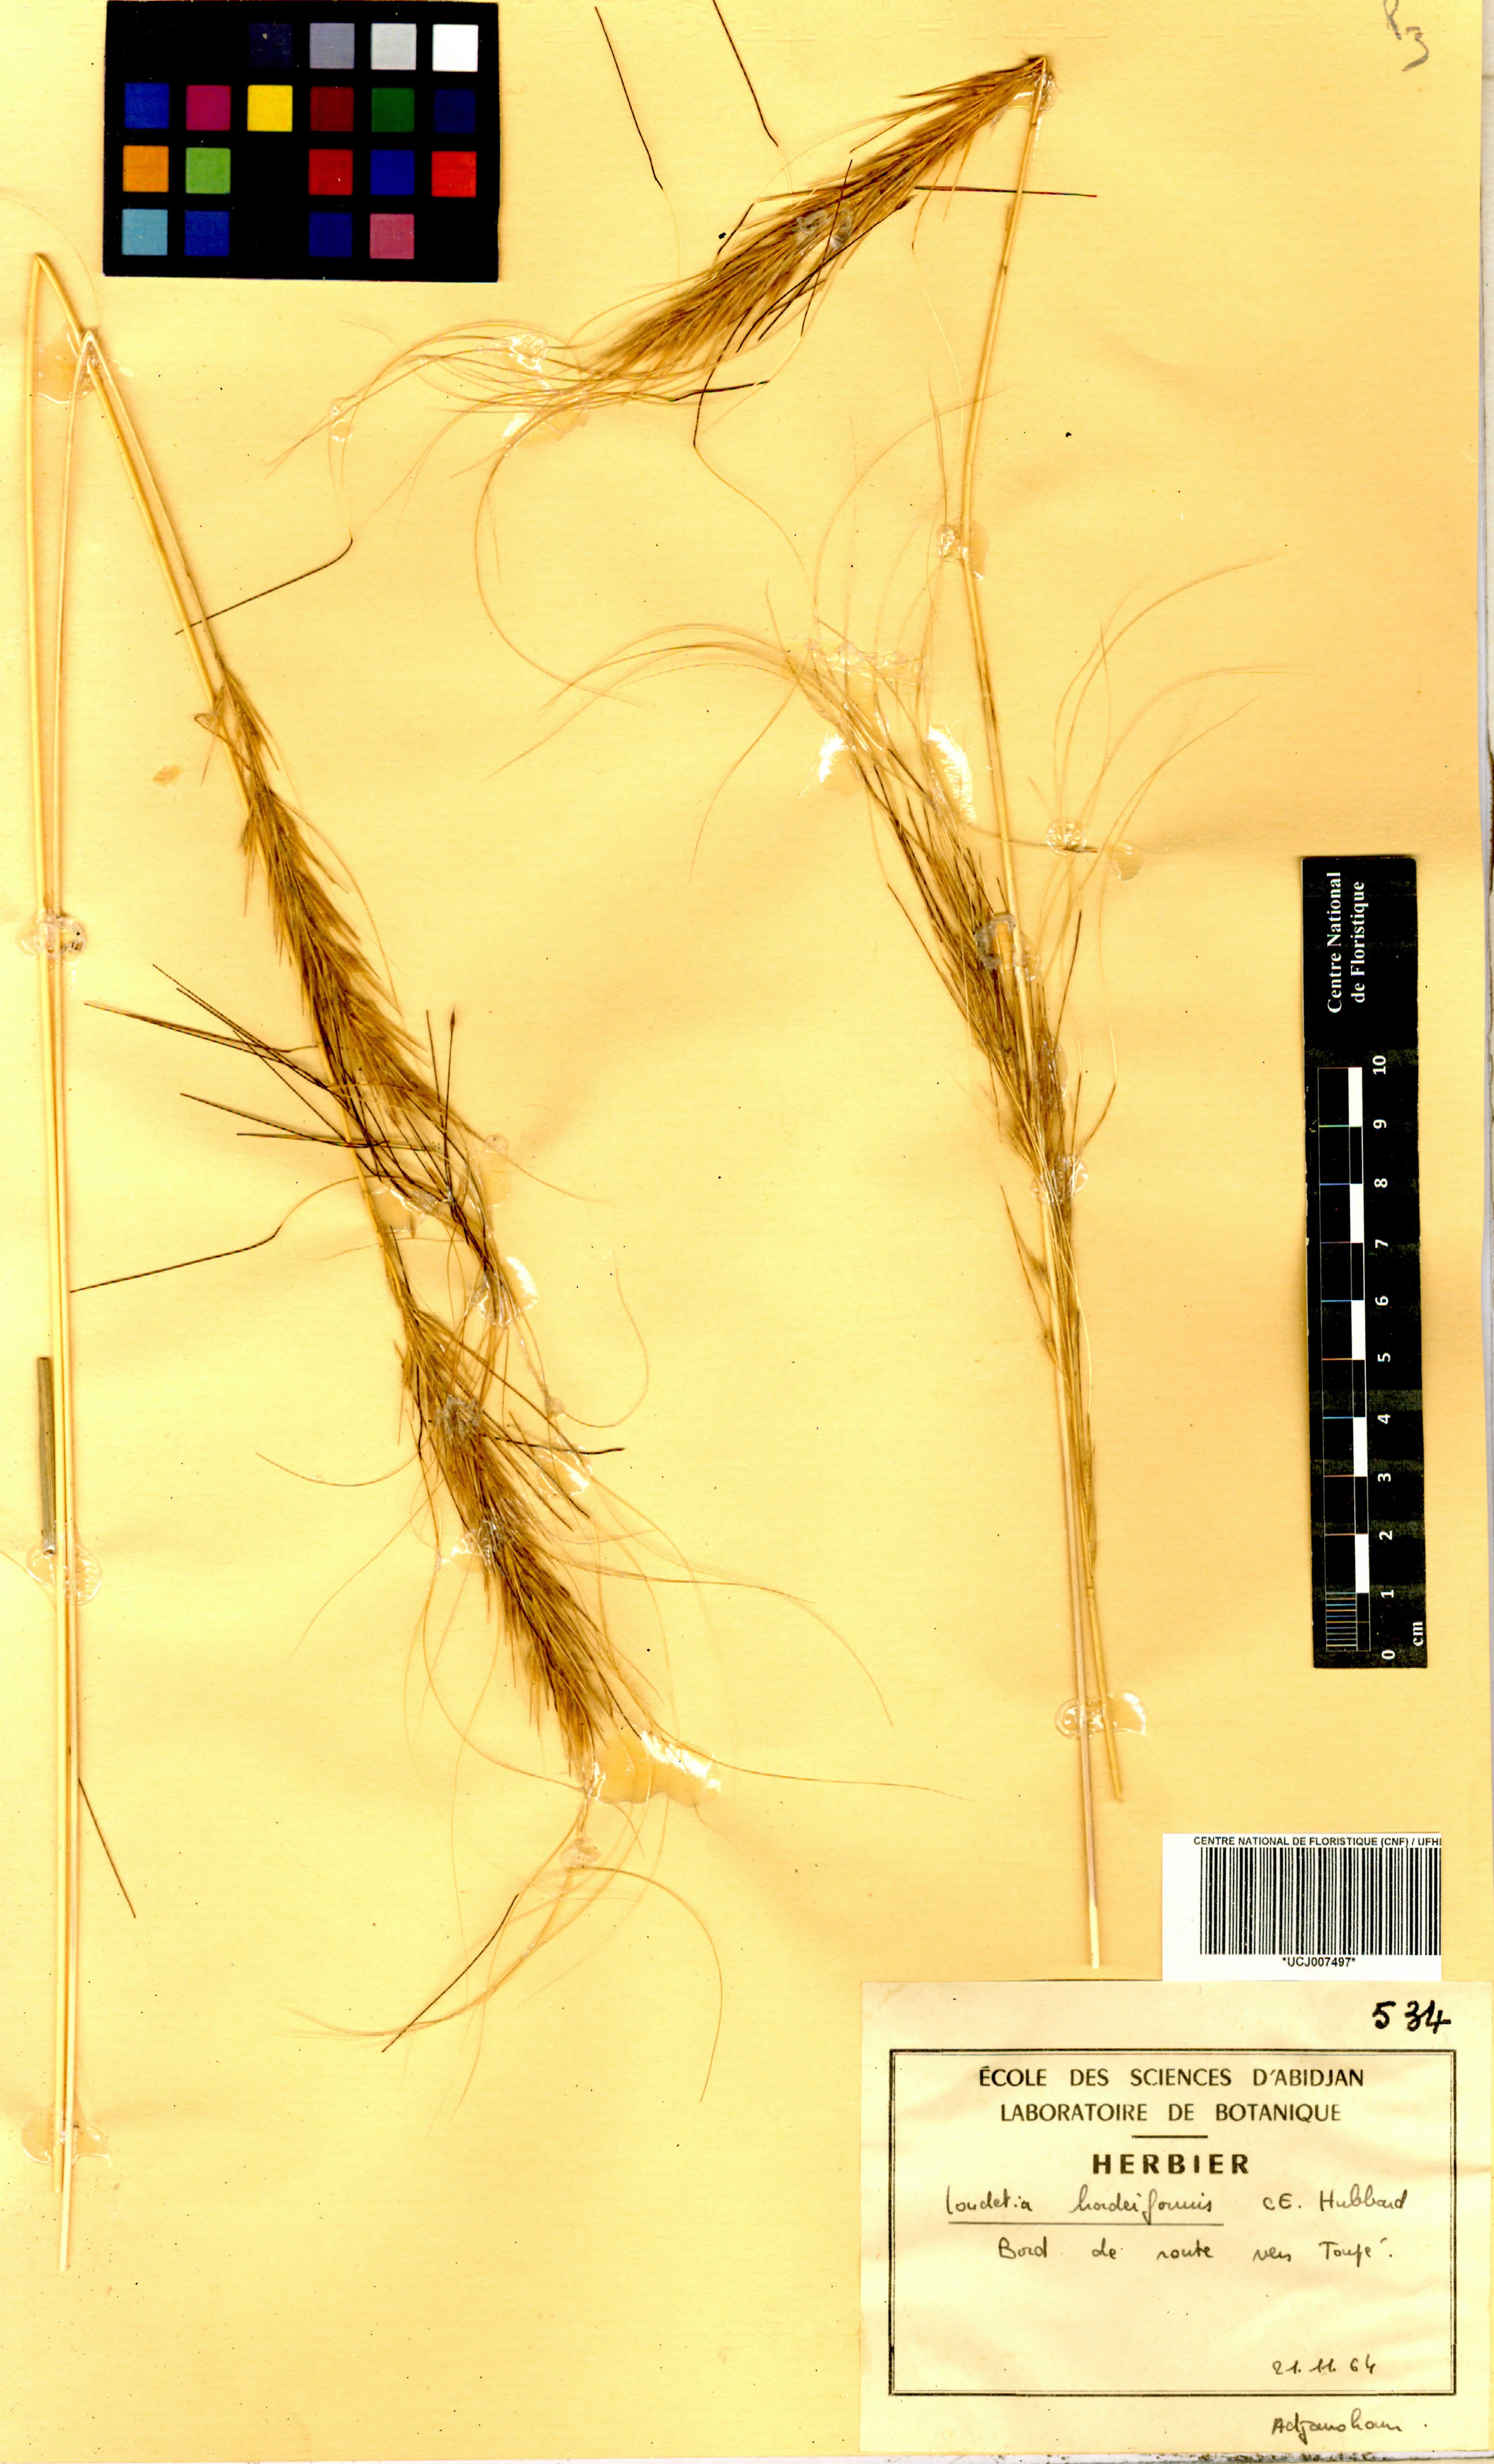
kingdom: Plantae
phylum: Tracheophyta
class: Liliopsida
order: Poales
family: Poaceae
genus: Loudetia
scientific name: Loudetia hordeiformis
